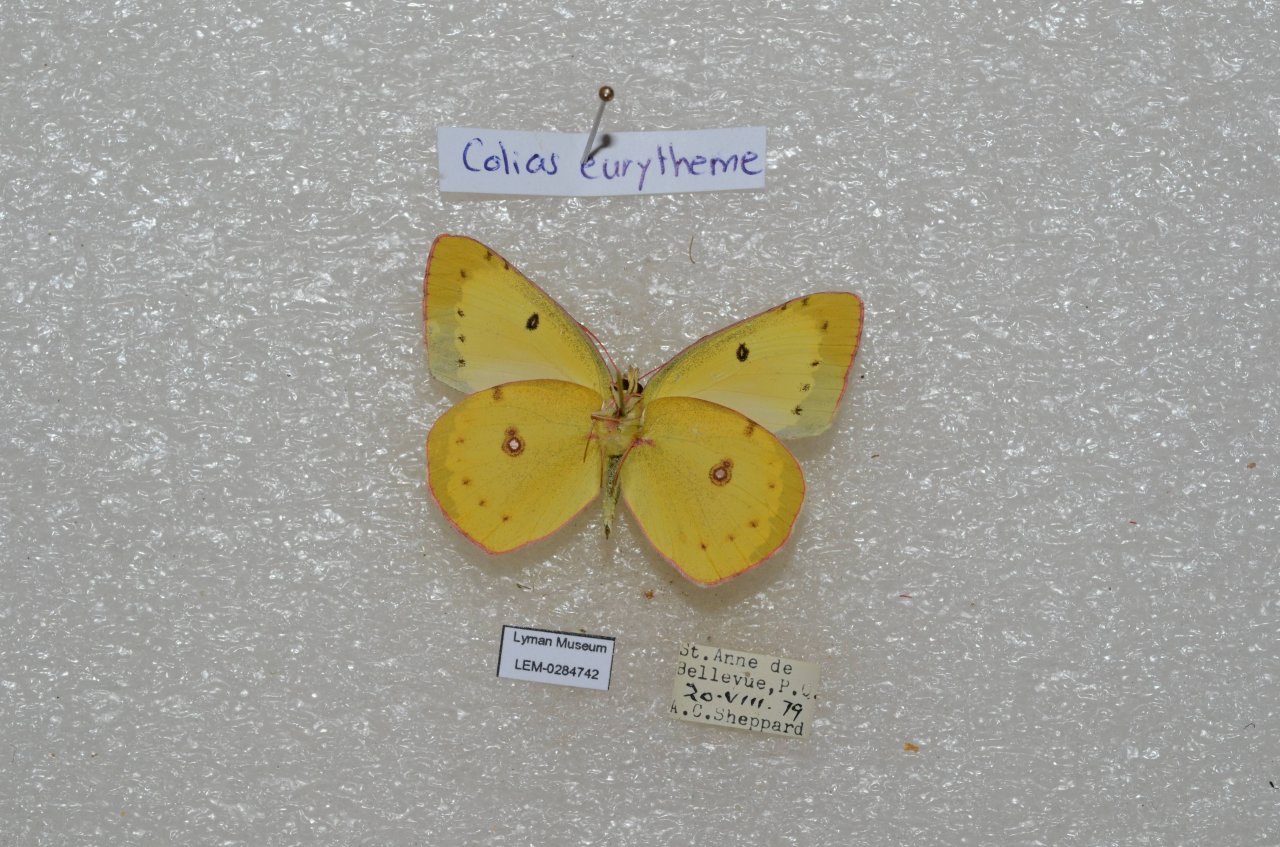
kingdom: Animalia
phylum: Arthropoda
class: Insecta
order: Lepidoptera
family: Pieridae
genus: Colias
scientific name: Colias eurytheme
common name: Orange Sulphur
